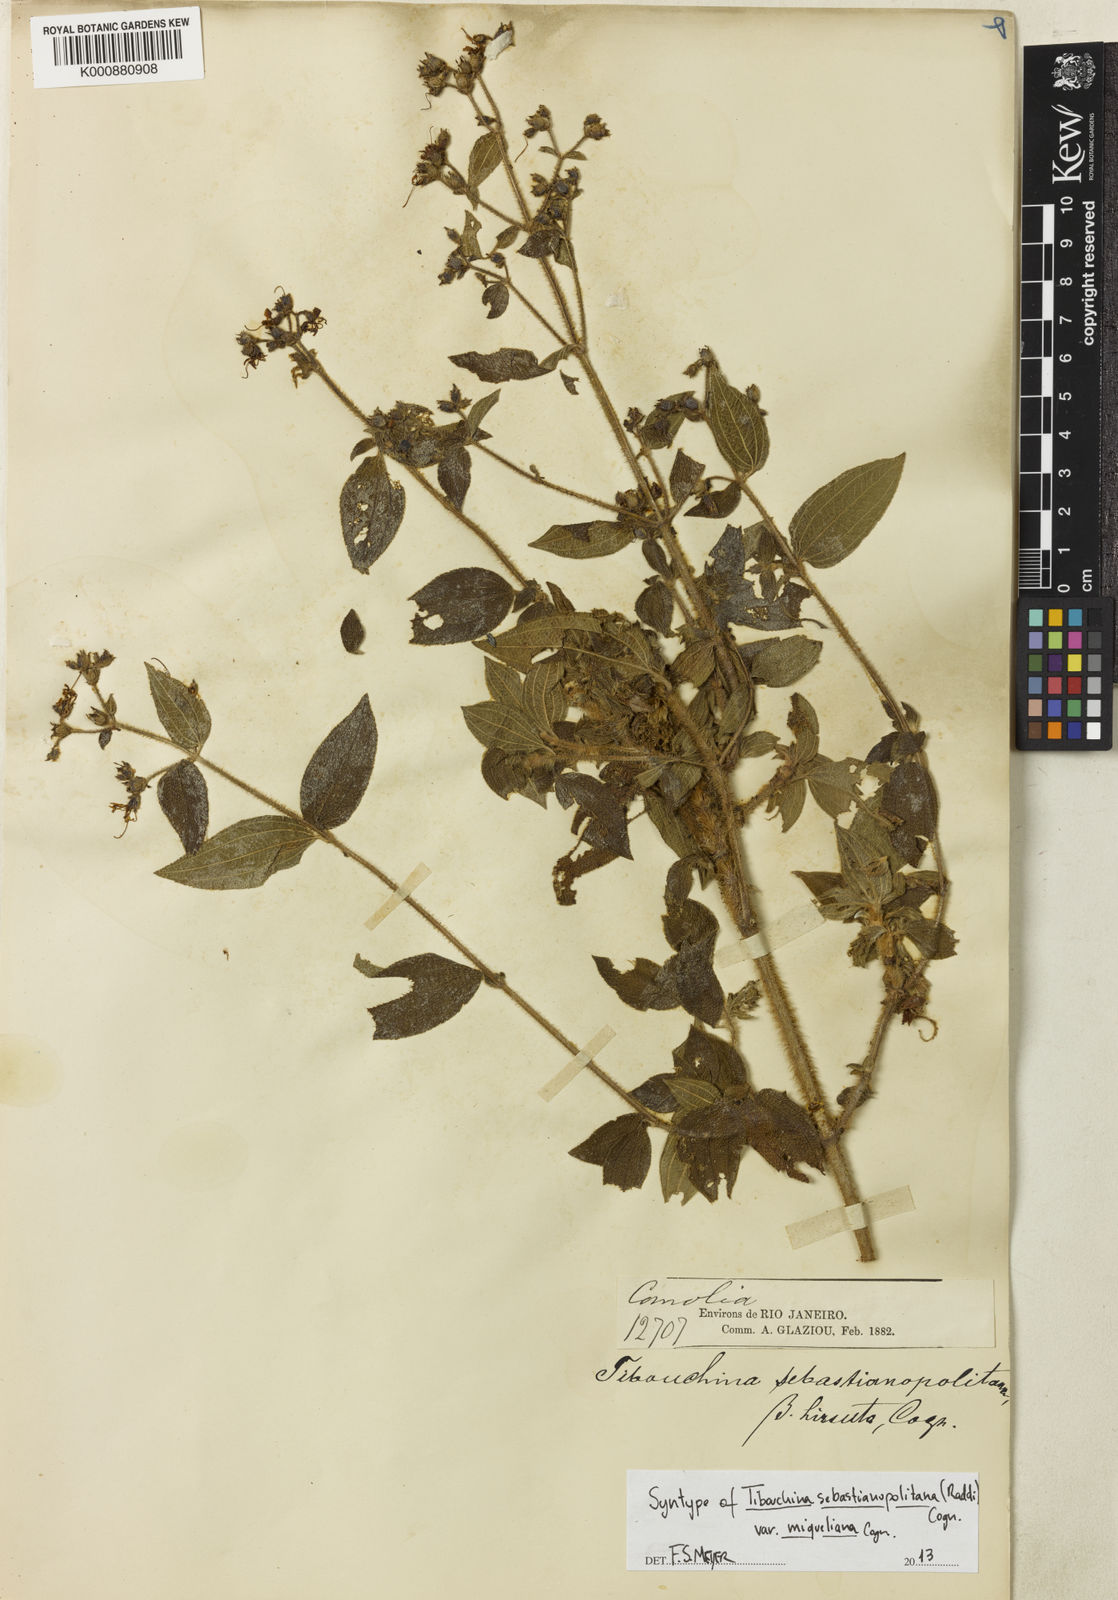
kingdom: Plantae
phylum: Tracheophyta
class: Magnoliopsida
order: Myrtales
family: Melastomataceae
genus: Chaetogastra
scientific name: Chaetogastra sebastianopolitana
